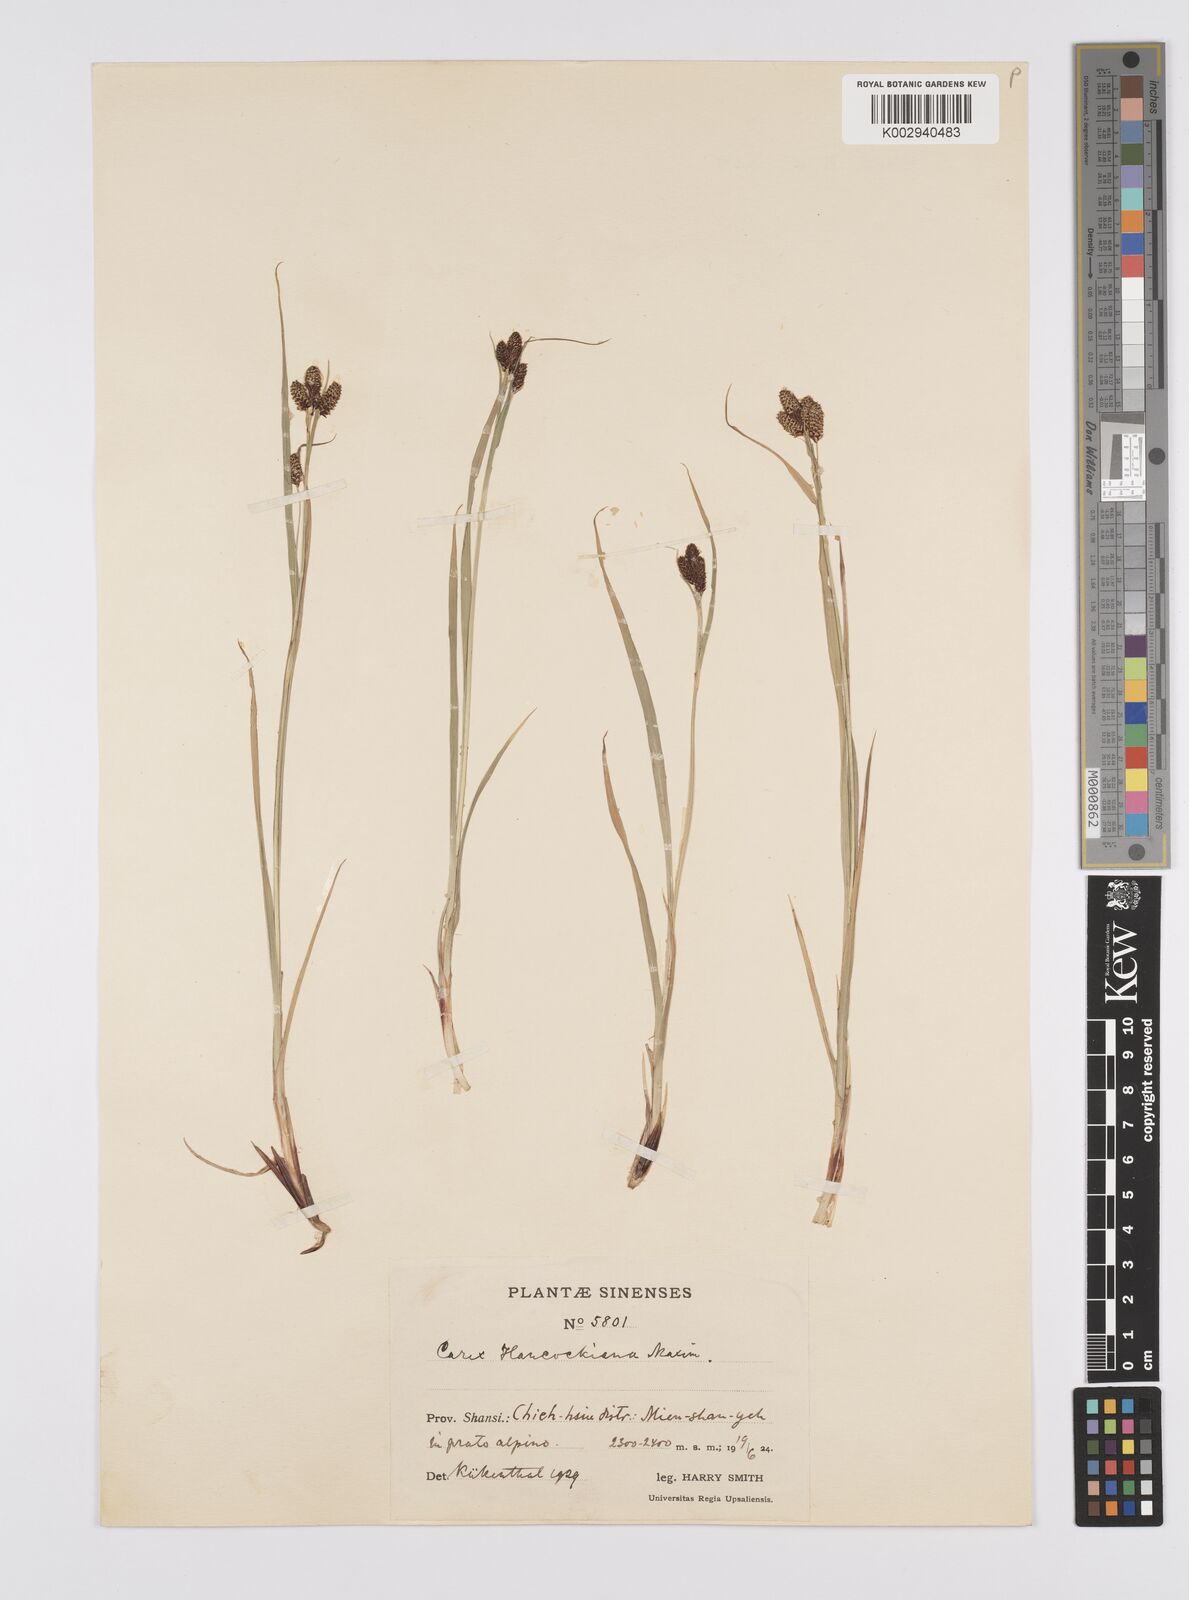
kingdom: Plantae
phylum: Tracheophyta
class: Liliopsida
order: Poales
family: Cyperaceae
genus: Carex
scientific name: Carex hancockiana
